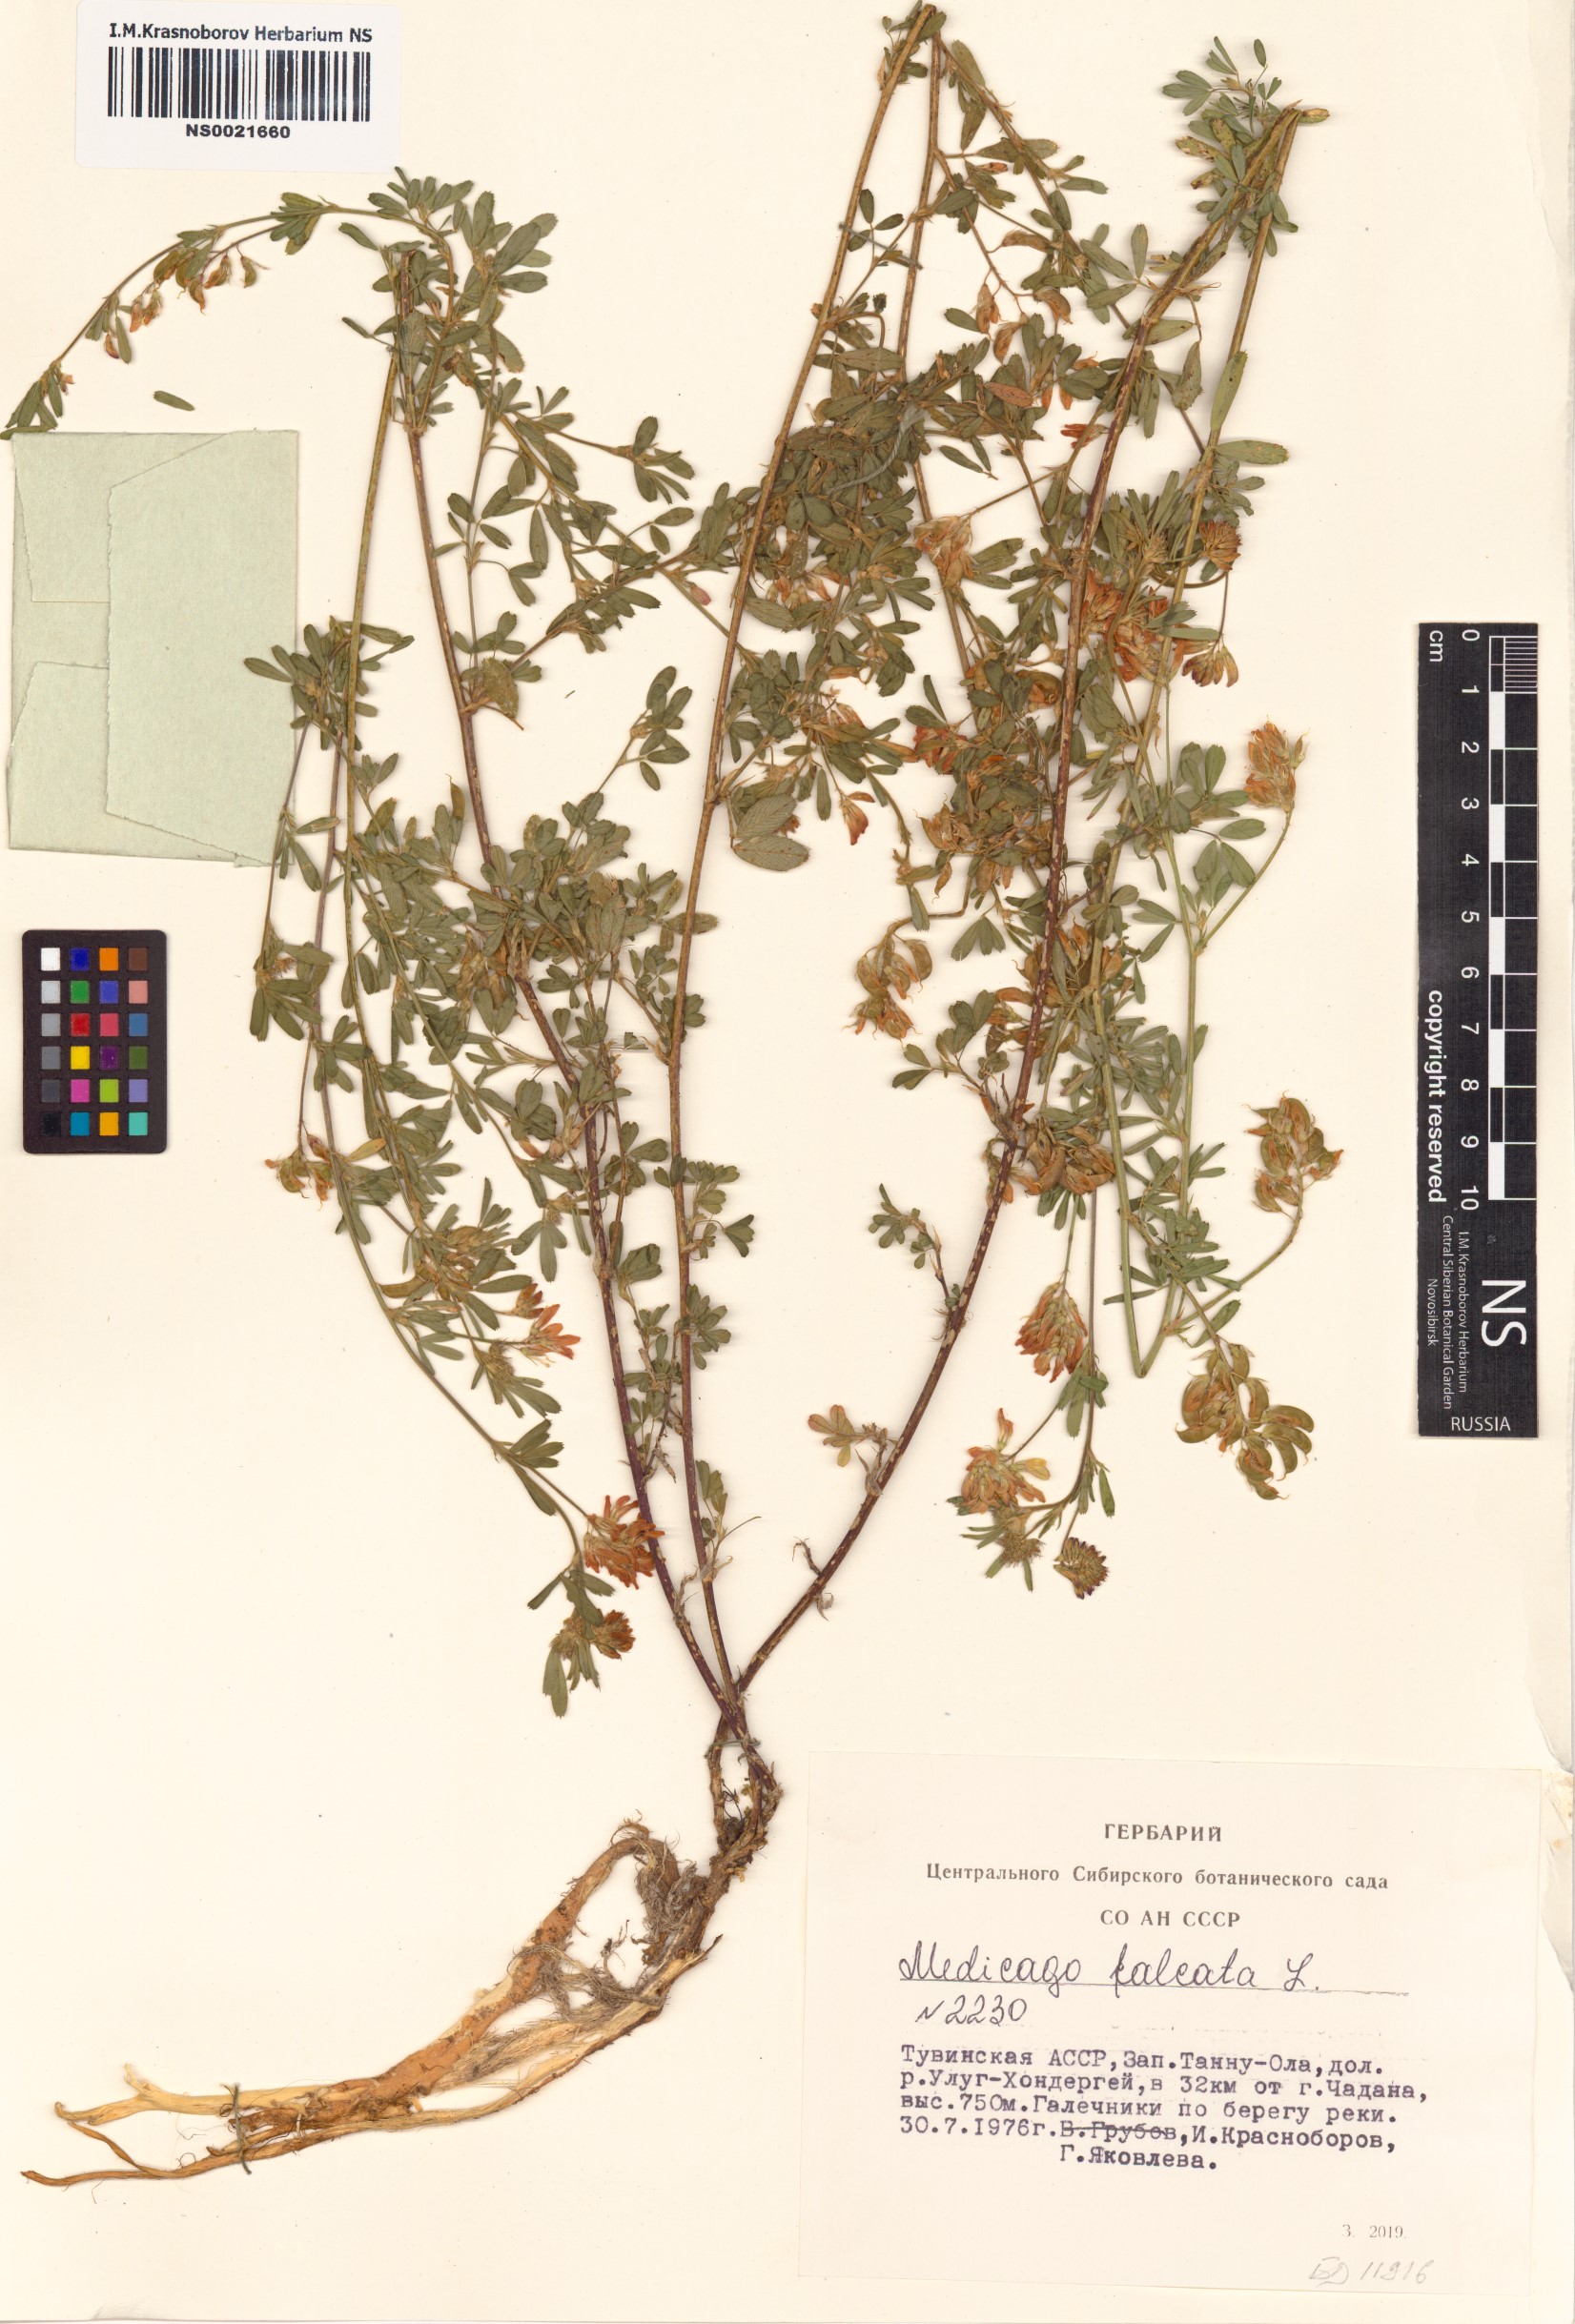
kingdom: Plantae
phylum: Tracheophyta
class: Magnoliopsida
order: Fabales
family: Fabaceae
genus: Medicago
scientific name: Medicago falcata
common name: Sickle medick
